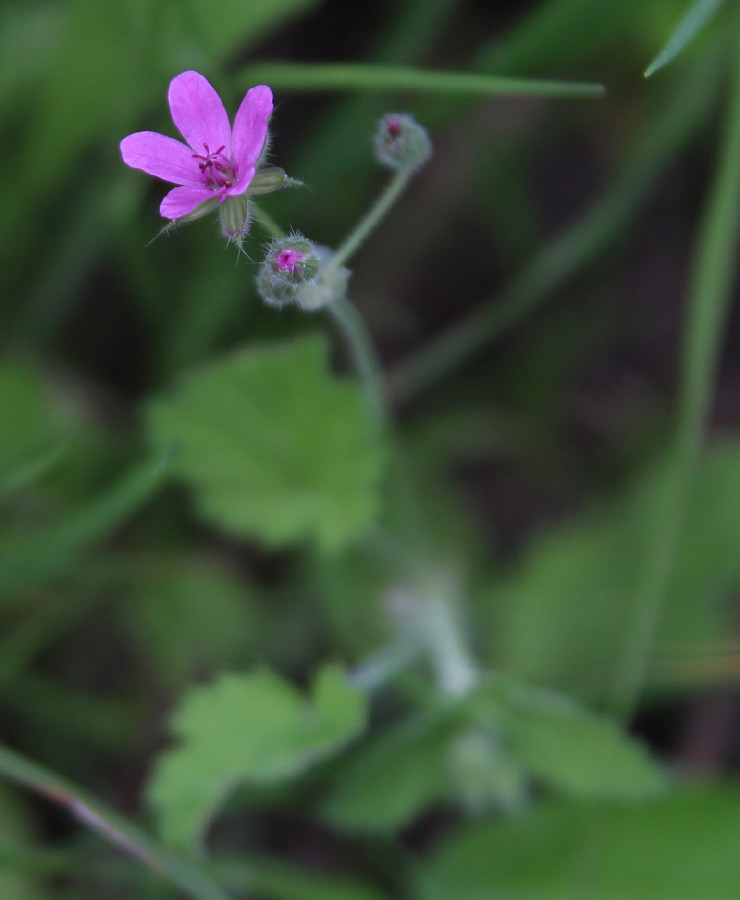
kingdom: Plantae
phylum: Tracheophyta
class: Magnoliopsida
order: Geraniales
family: Geraniaceae
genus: Erodium
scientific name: Erodium malacoides
